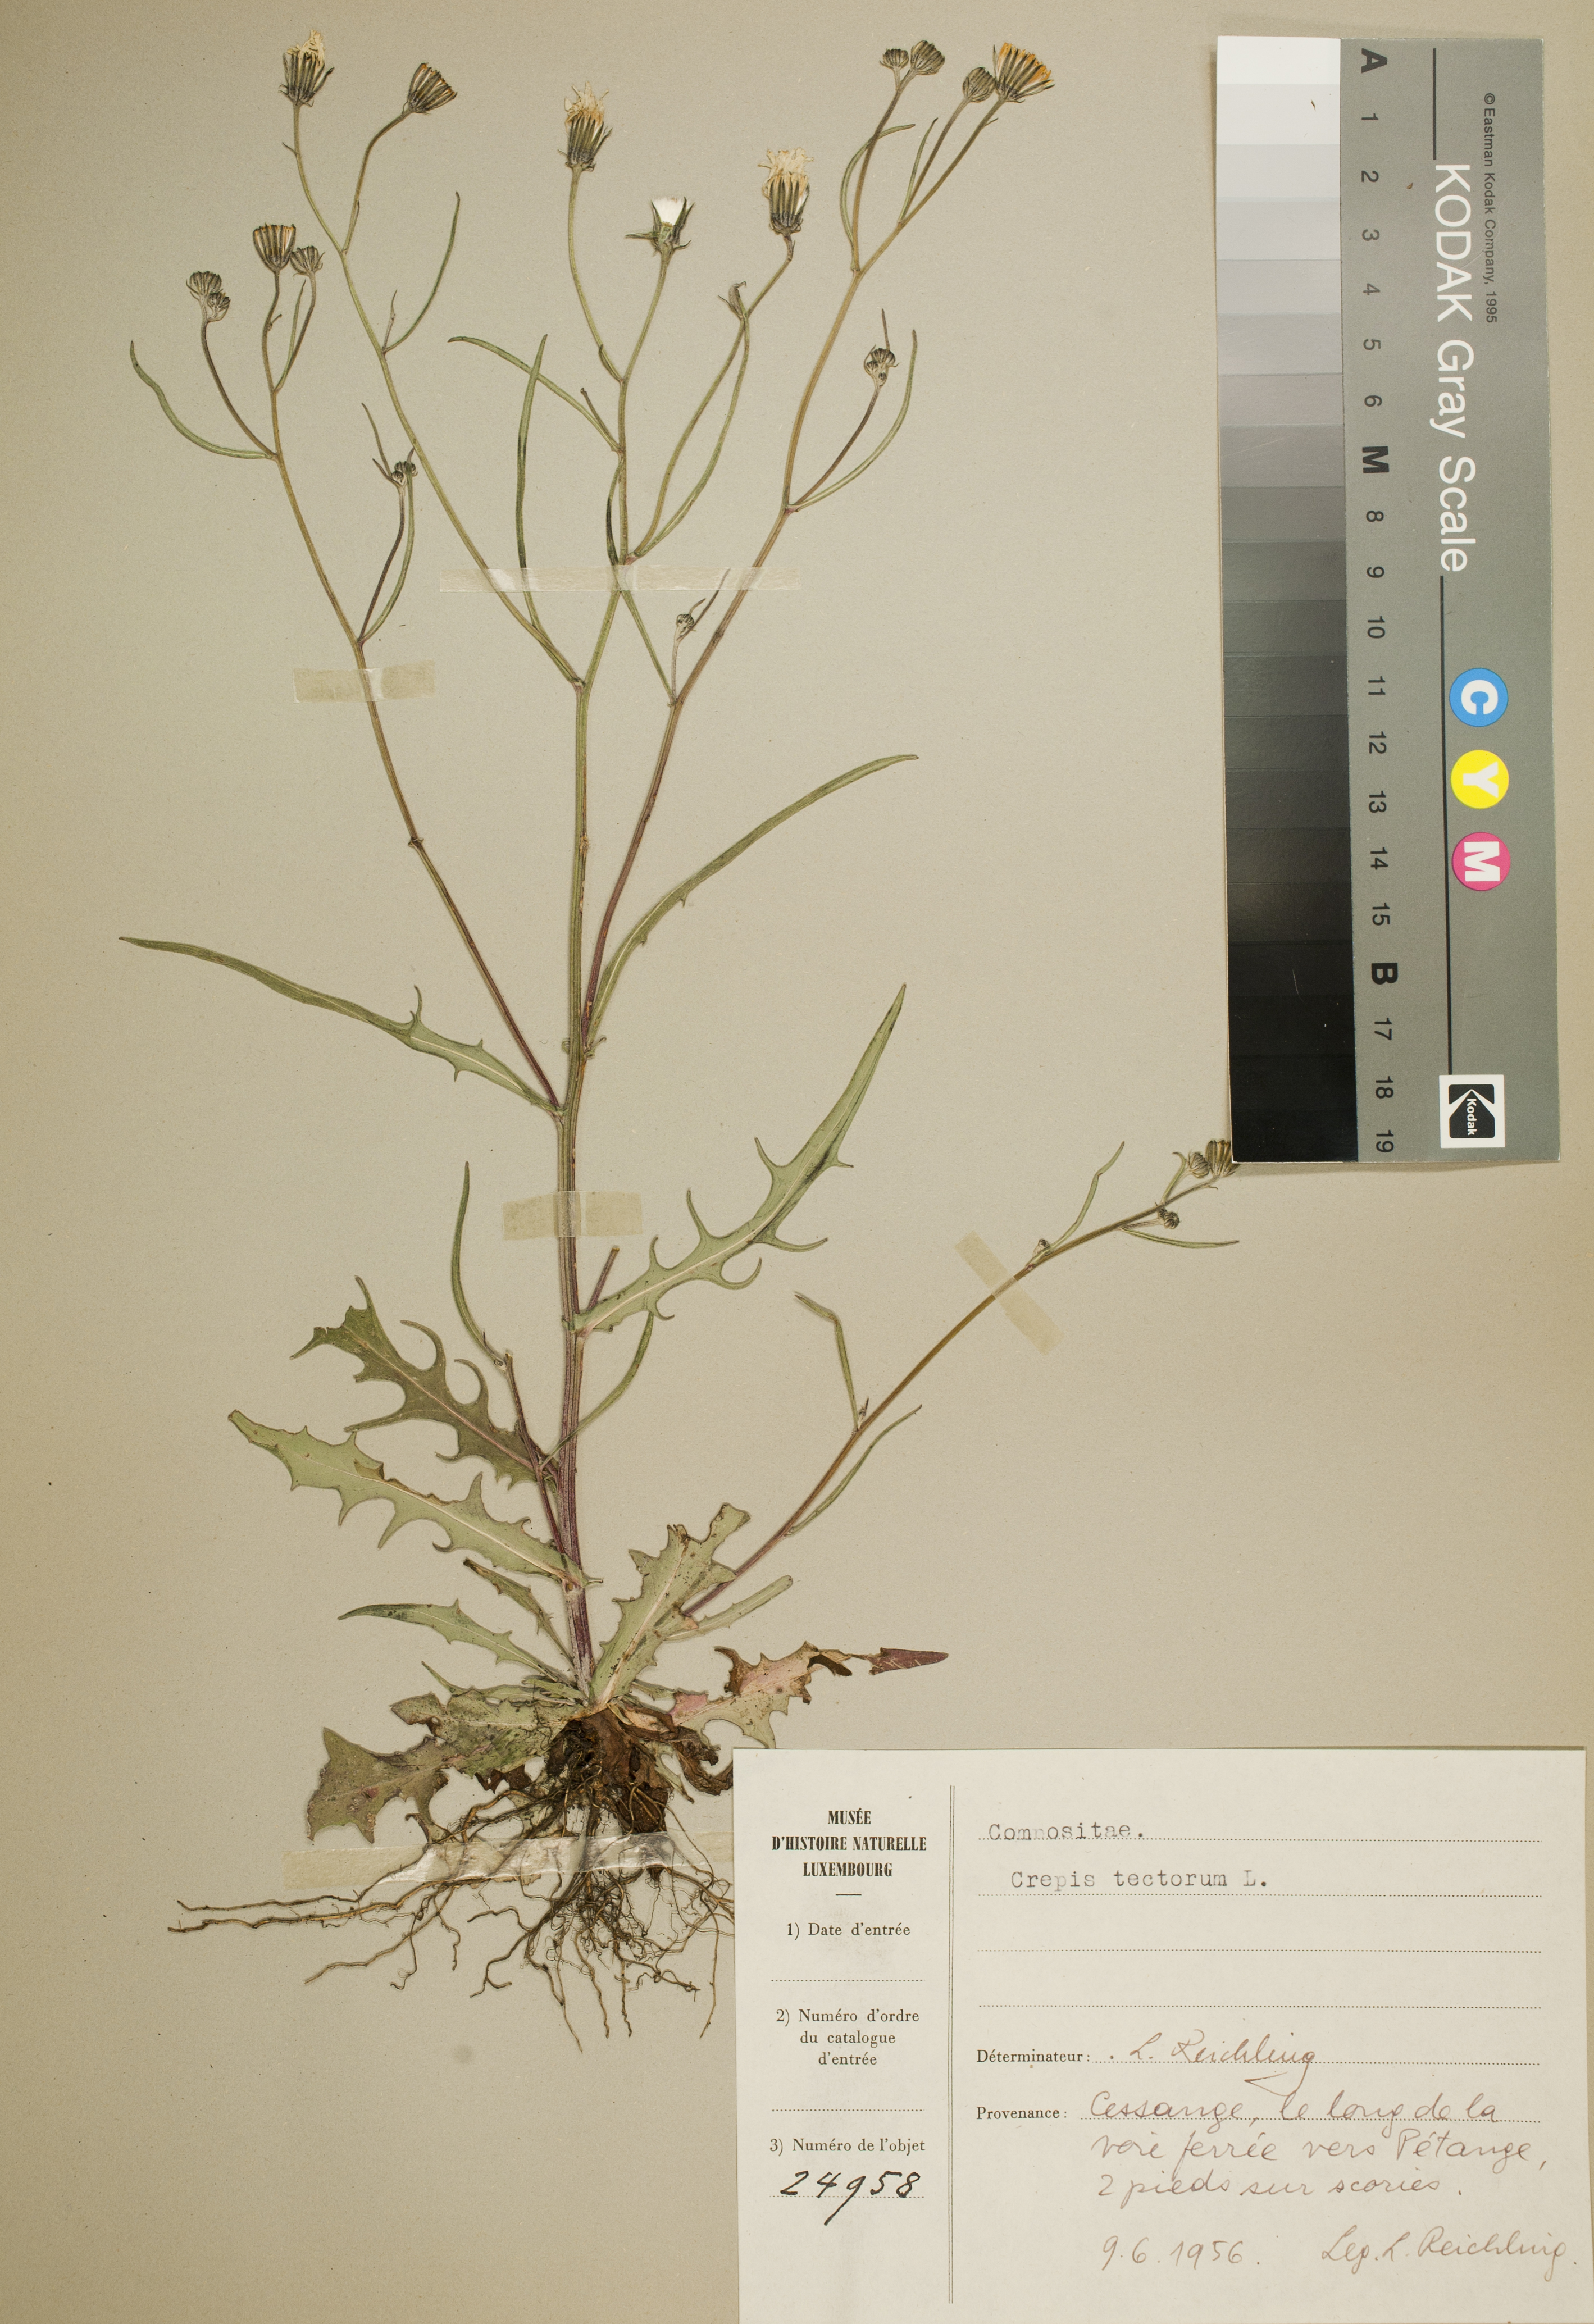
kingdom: Plantae
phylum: Tracheophyta
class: Magnoliopsida
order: Asterales
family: Asteraceae
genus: Crepis
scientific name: Crepis tectorum
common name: Narrow-leaved hawk's-beard
